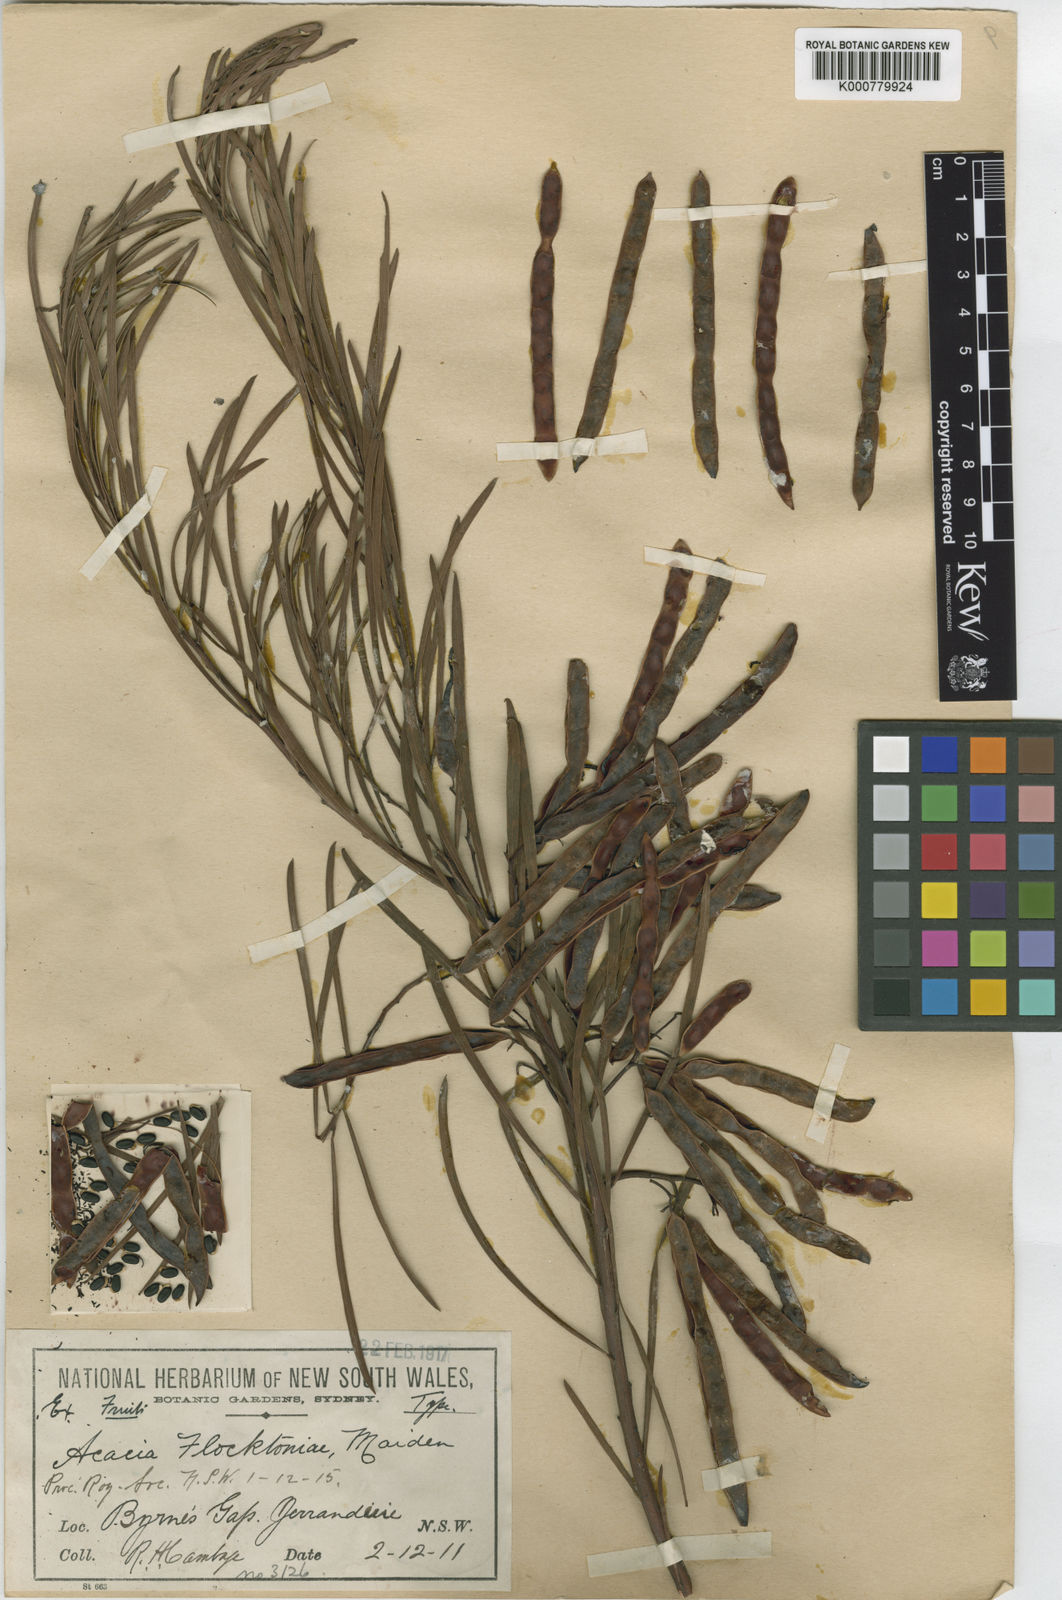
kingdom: Plantae
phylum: Tracheophyta
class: Magnoliopsida
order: Fabales
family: Fabaceae
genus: Acacia
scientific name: Acacia flocktoniae
